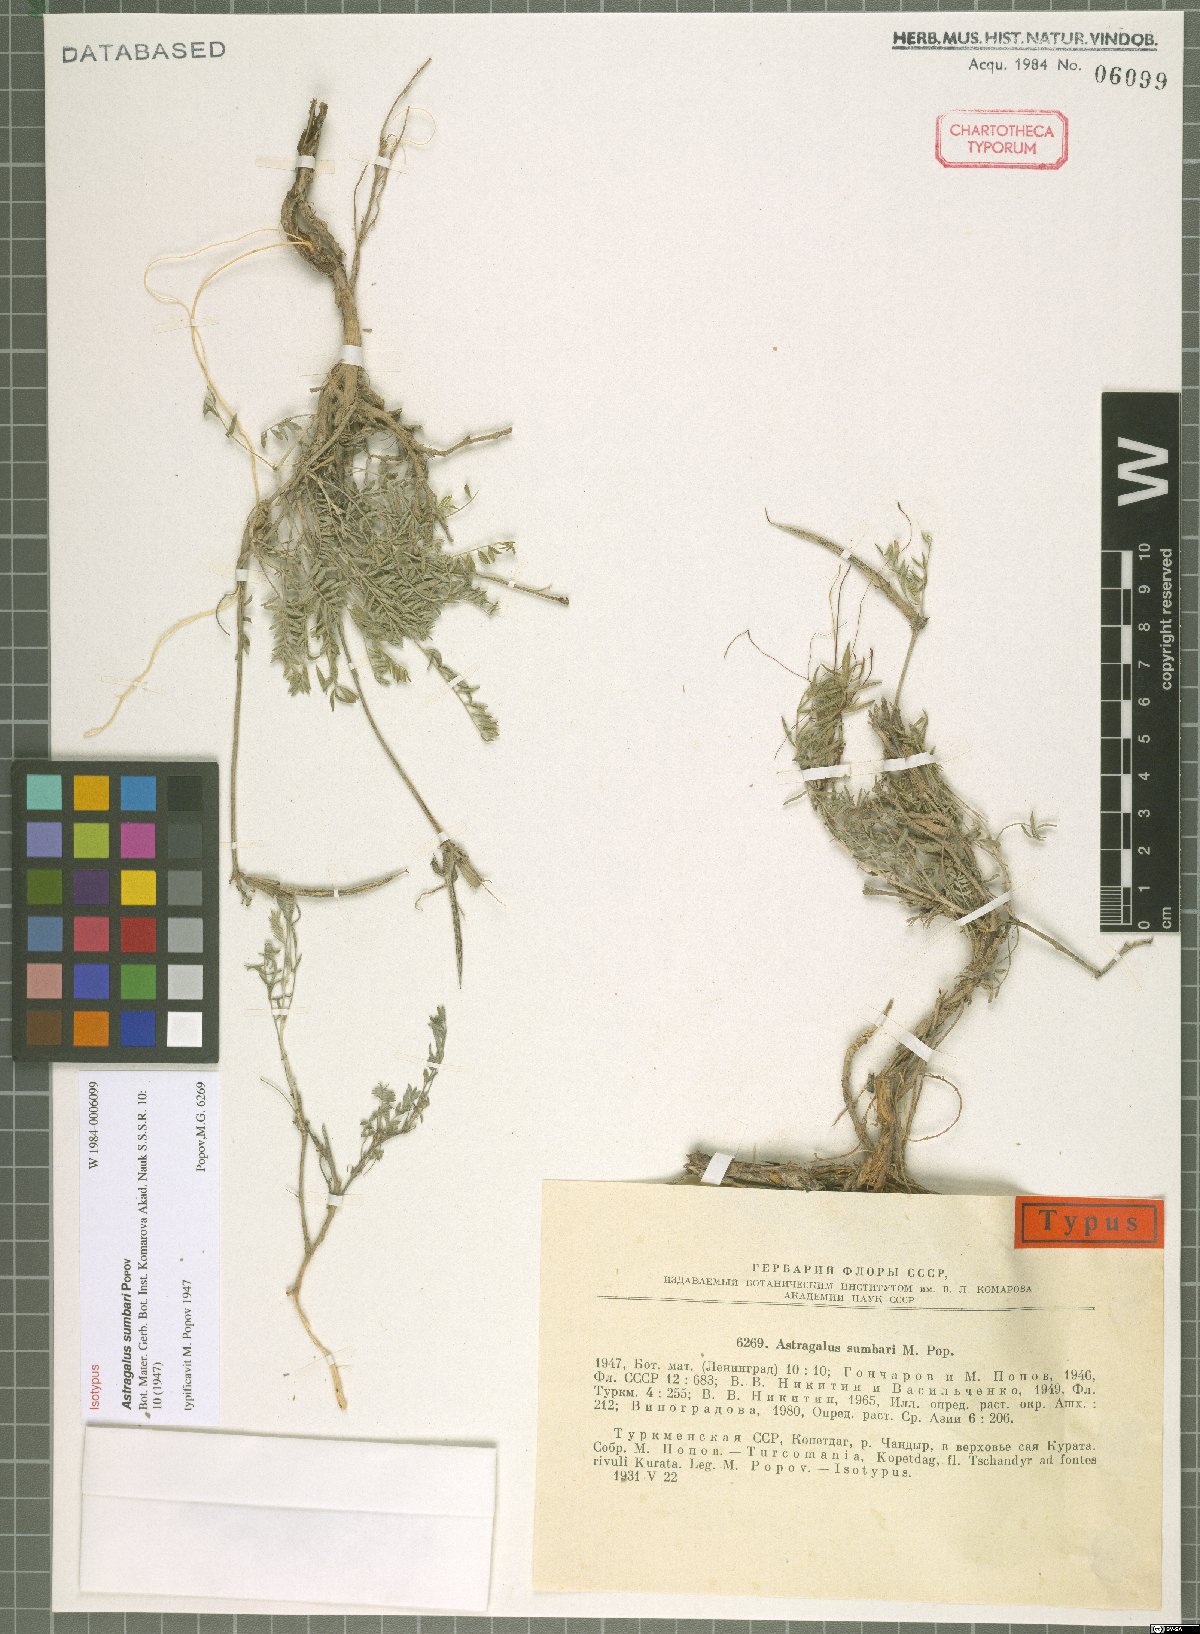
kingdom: Plantae
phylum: Tracheophyta
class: Magnoliopsida
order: Fabales
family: Fabaceae
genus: Astragalus
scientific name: Astragalus sumbari
